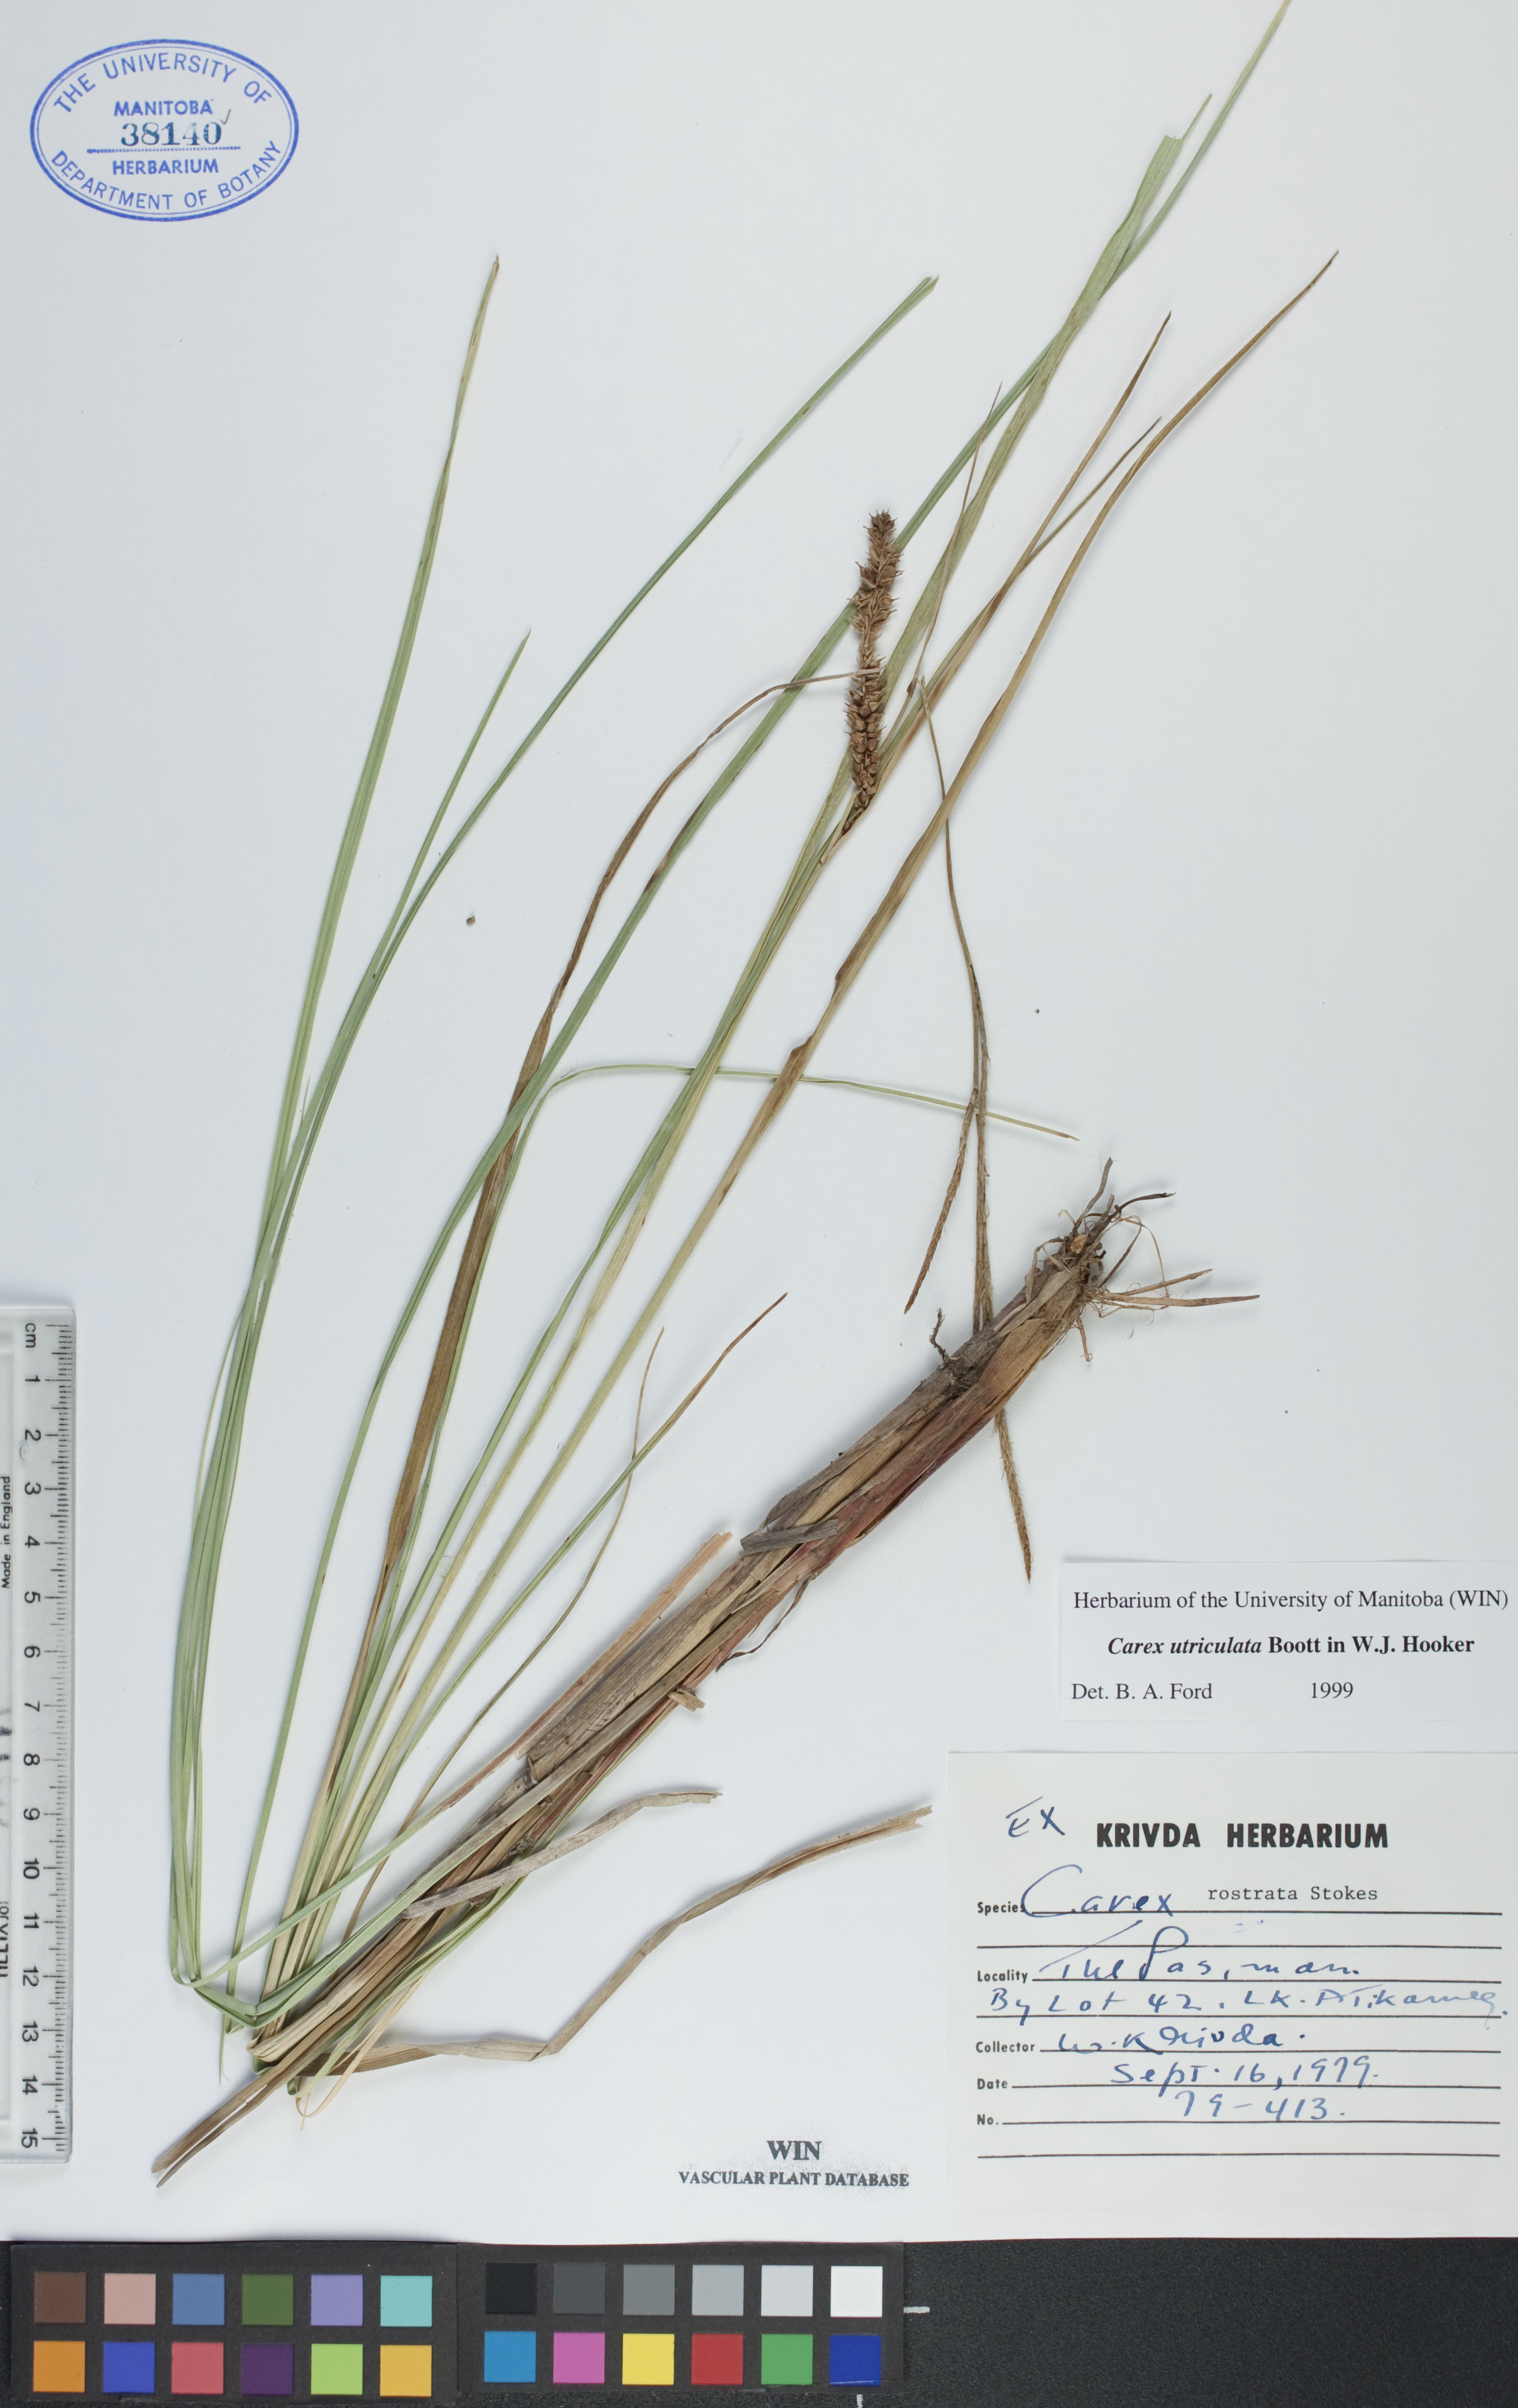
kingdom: Plantae
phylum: Tracheophyta
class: Liliopsida
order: Poales
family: Cyperaceae
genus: Carex
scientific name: Carex utriculata
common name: Beaked sedge
